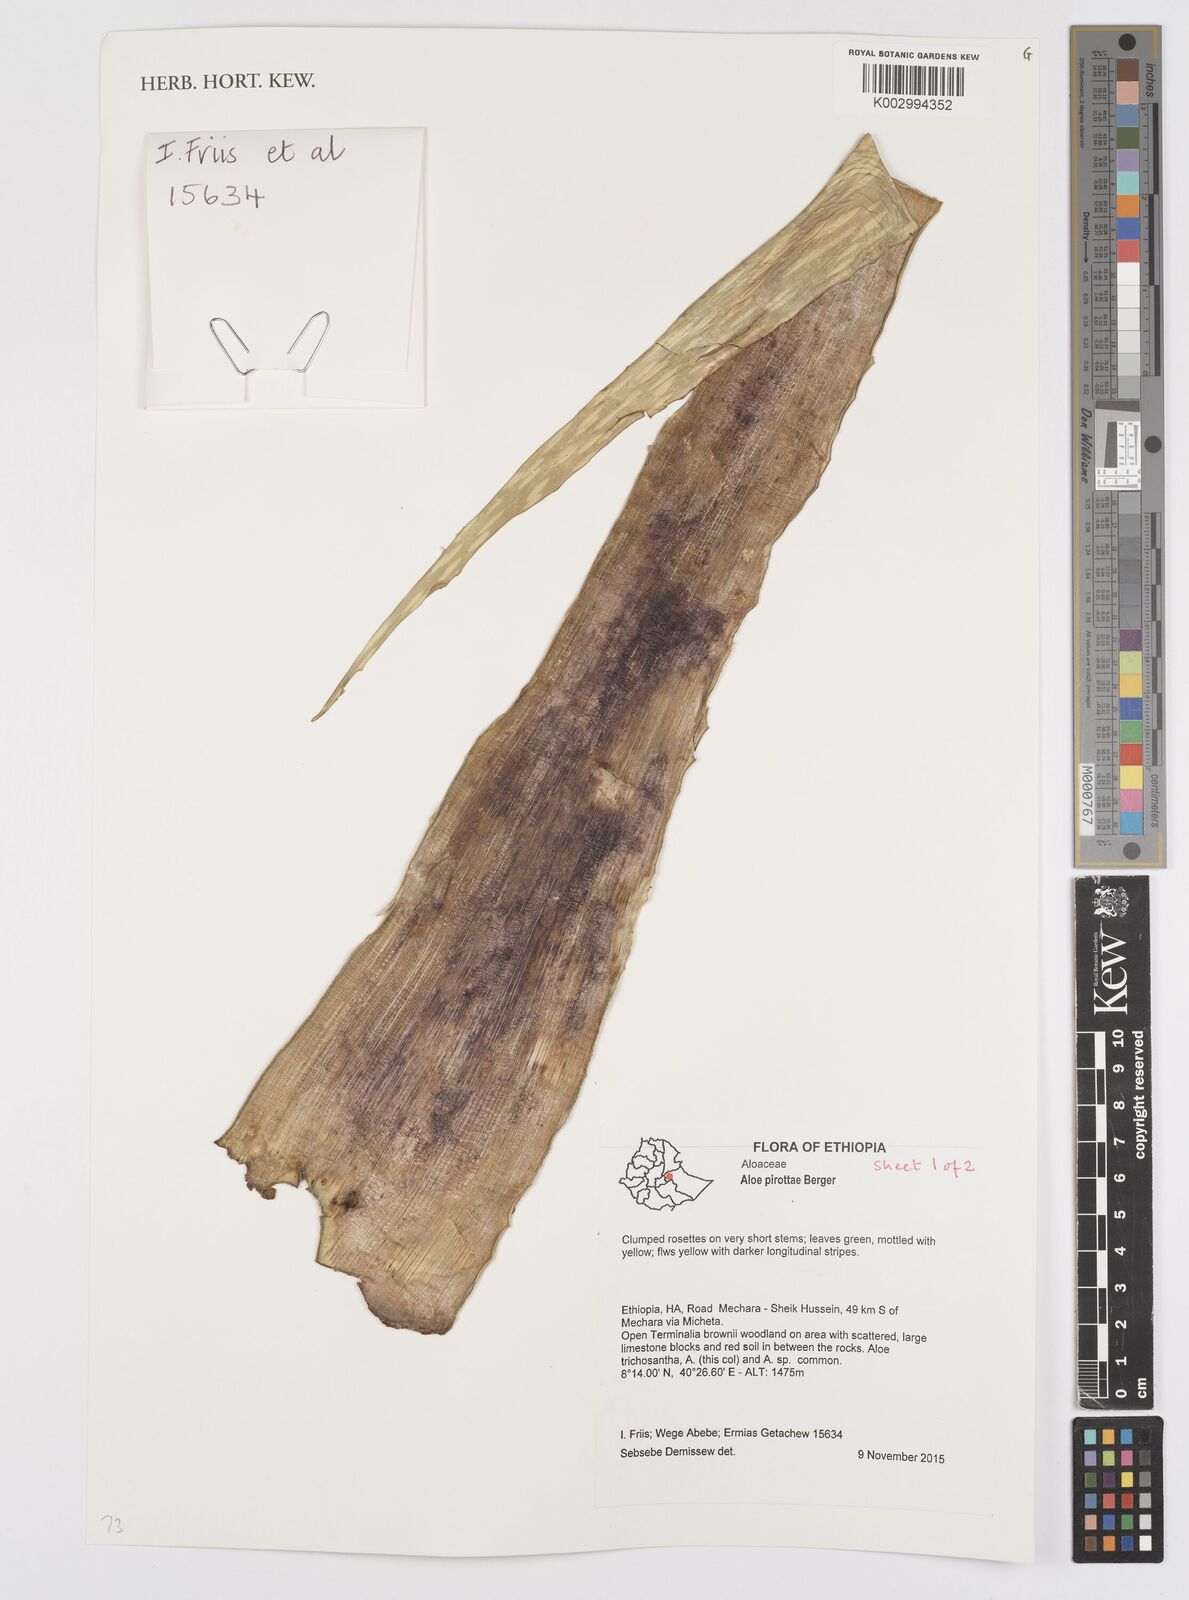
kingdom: Plantae
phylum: Tracheophyta
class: Liliopsida
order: Asparagales
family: Asphodelaceae
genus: Aloe
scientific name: Aloe pirottae
